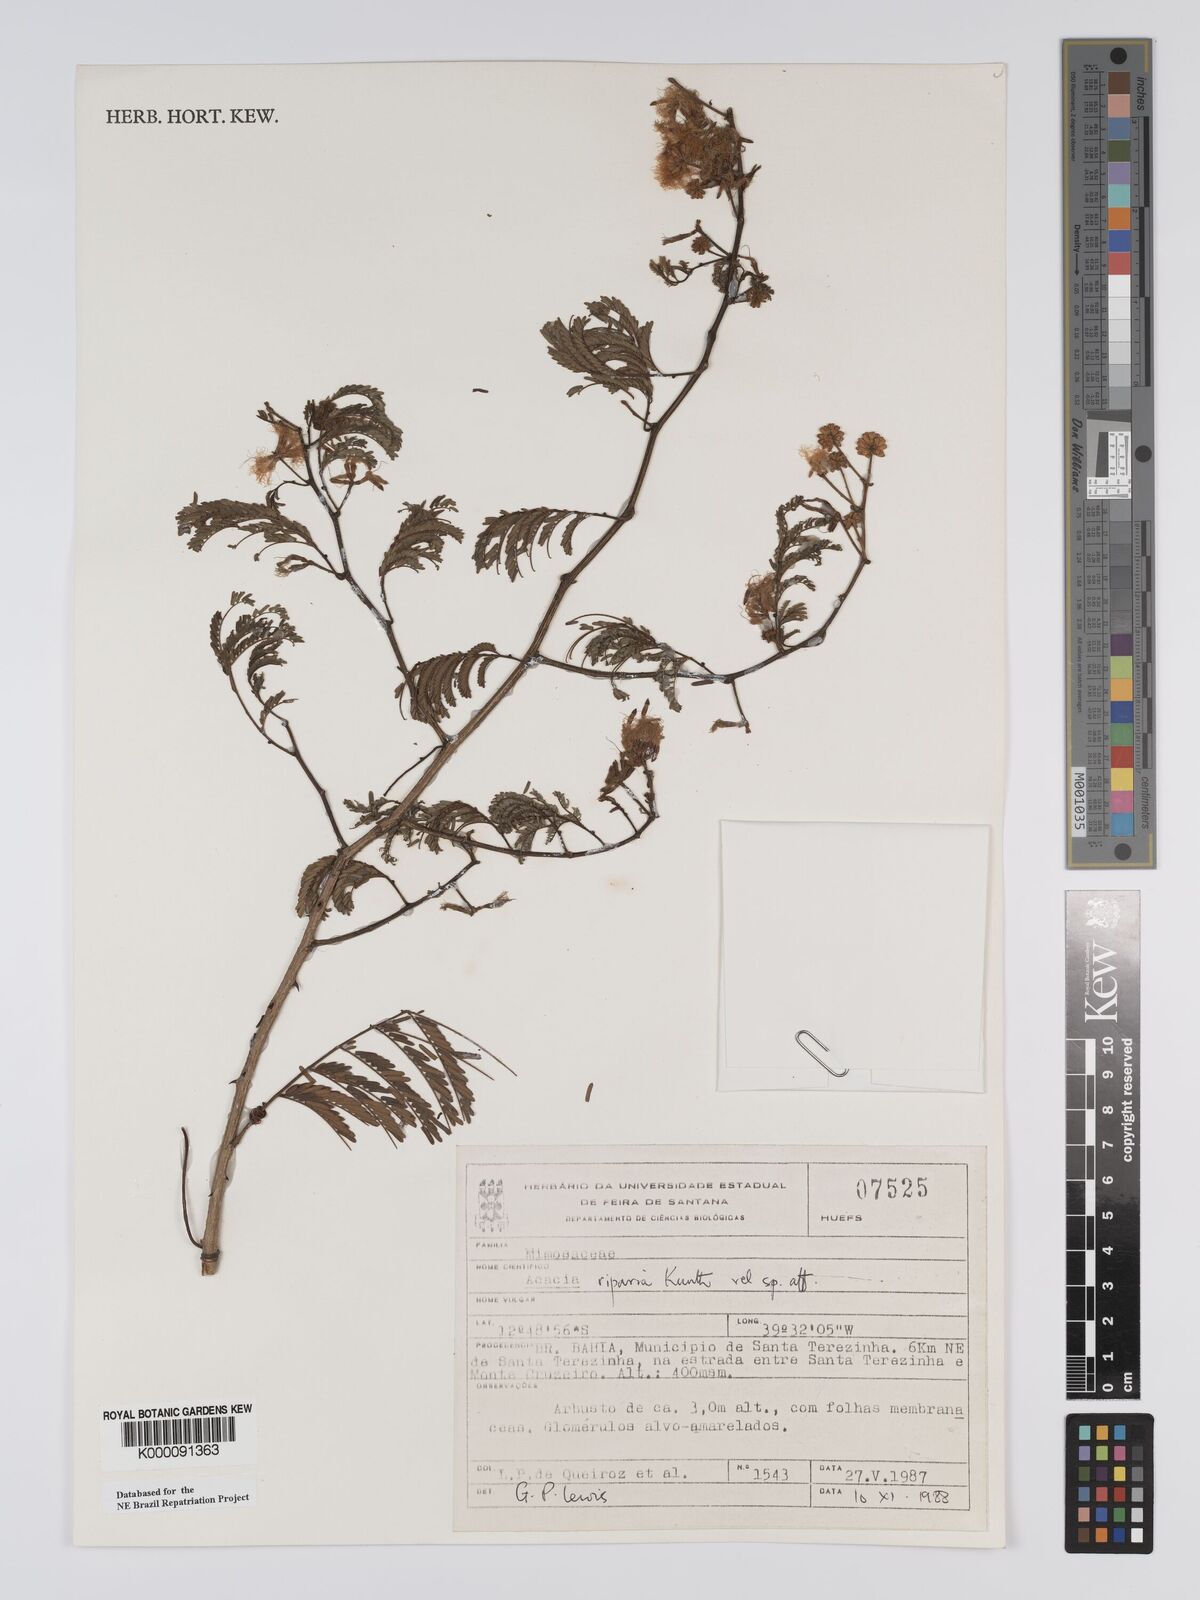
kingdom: Plantae
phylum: Tracheophyta
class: Magnoliopsida
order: Fabales
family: Fabaceae
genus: Senegalia
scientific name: Senegalia riparia
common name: Catch-and-keep
